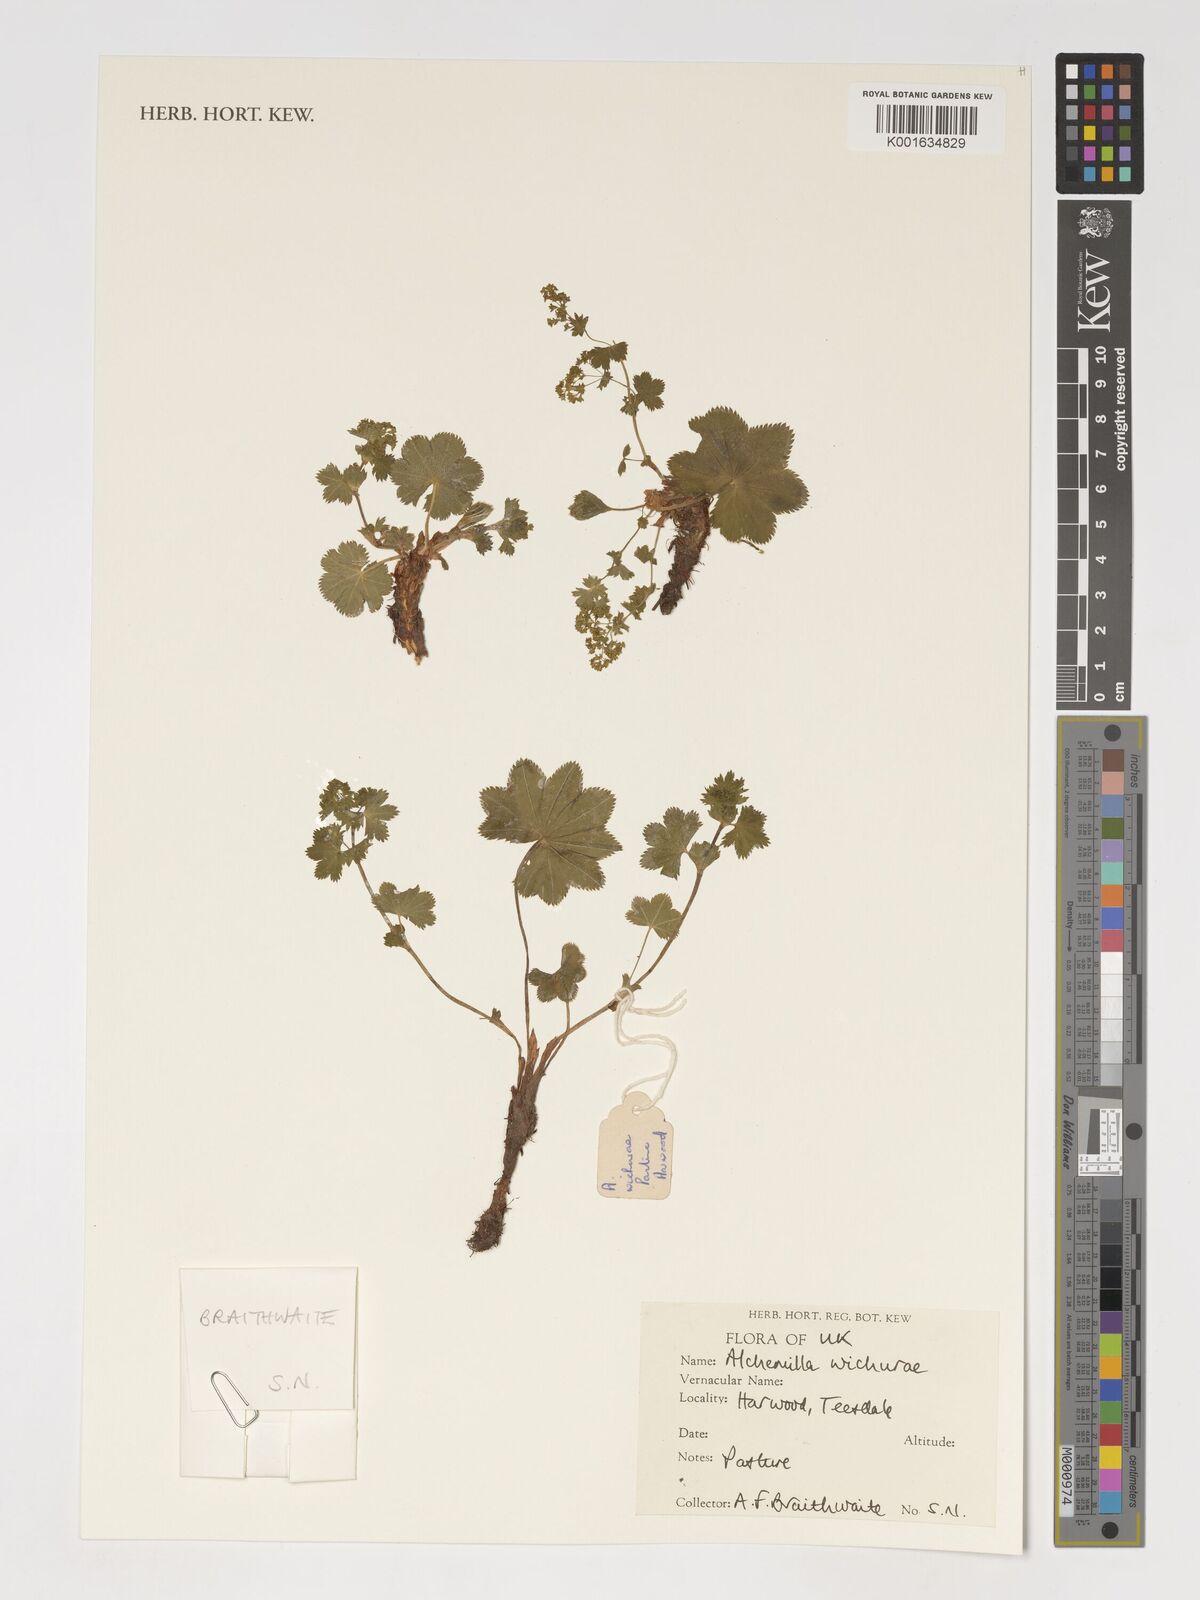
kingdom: Plantae
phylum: Tracheophyta
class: Magnoliopsida
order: Rosales
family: Rosaceae
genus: Alchemilla
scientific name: Alchemilla wichurae
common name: Rock lady's mantle
